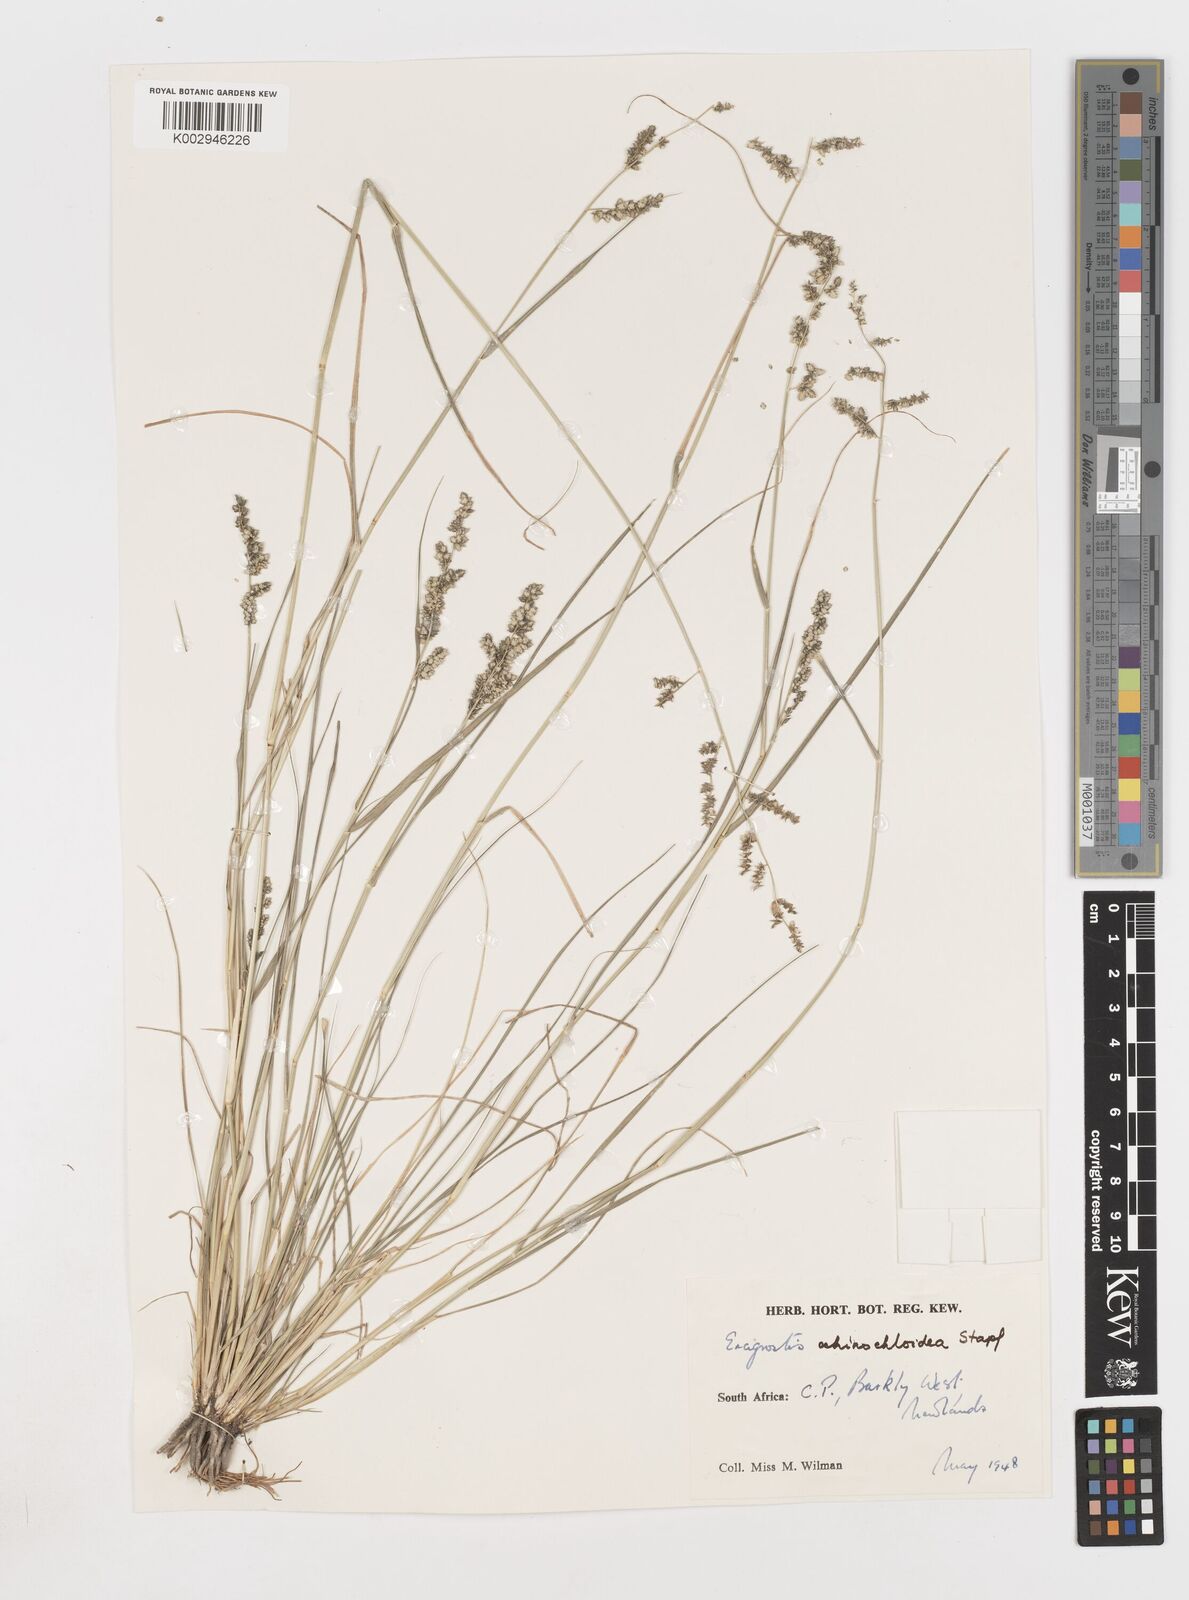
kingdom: Plantae
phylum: Tracheophyta
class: Liliopsida
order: Poales
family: Poaceae
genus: Eragrostis
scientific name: Eragrostis echinochloidea
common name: African lovegrass
